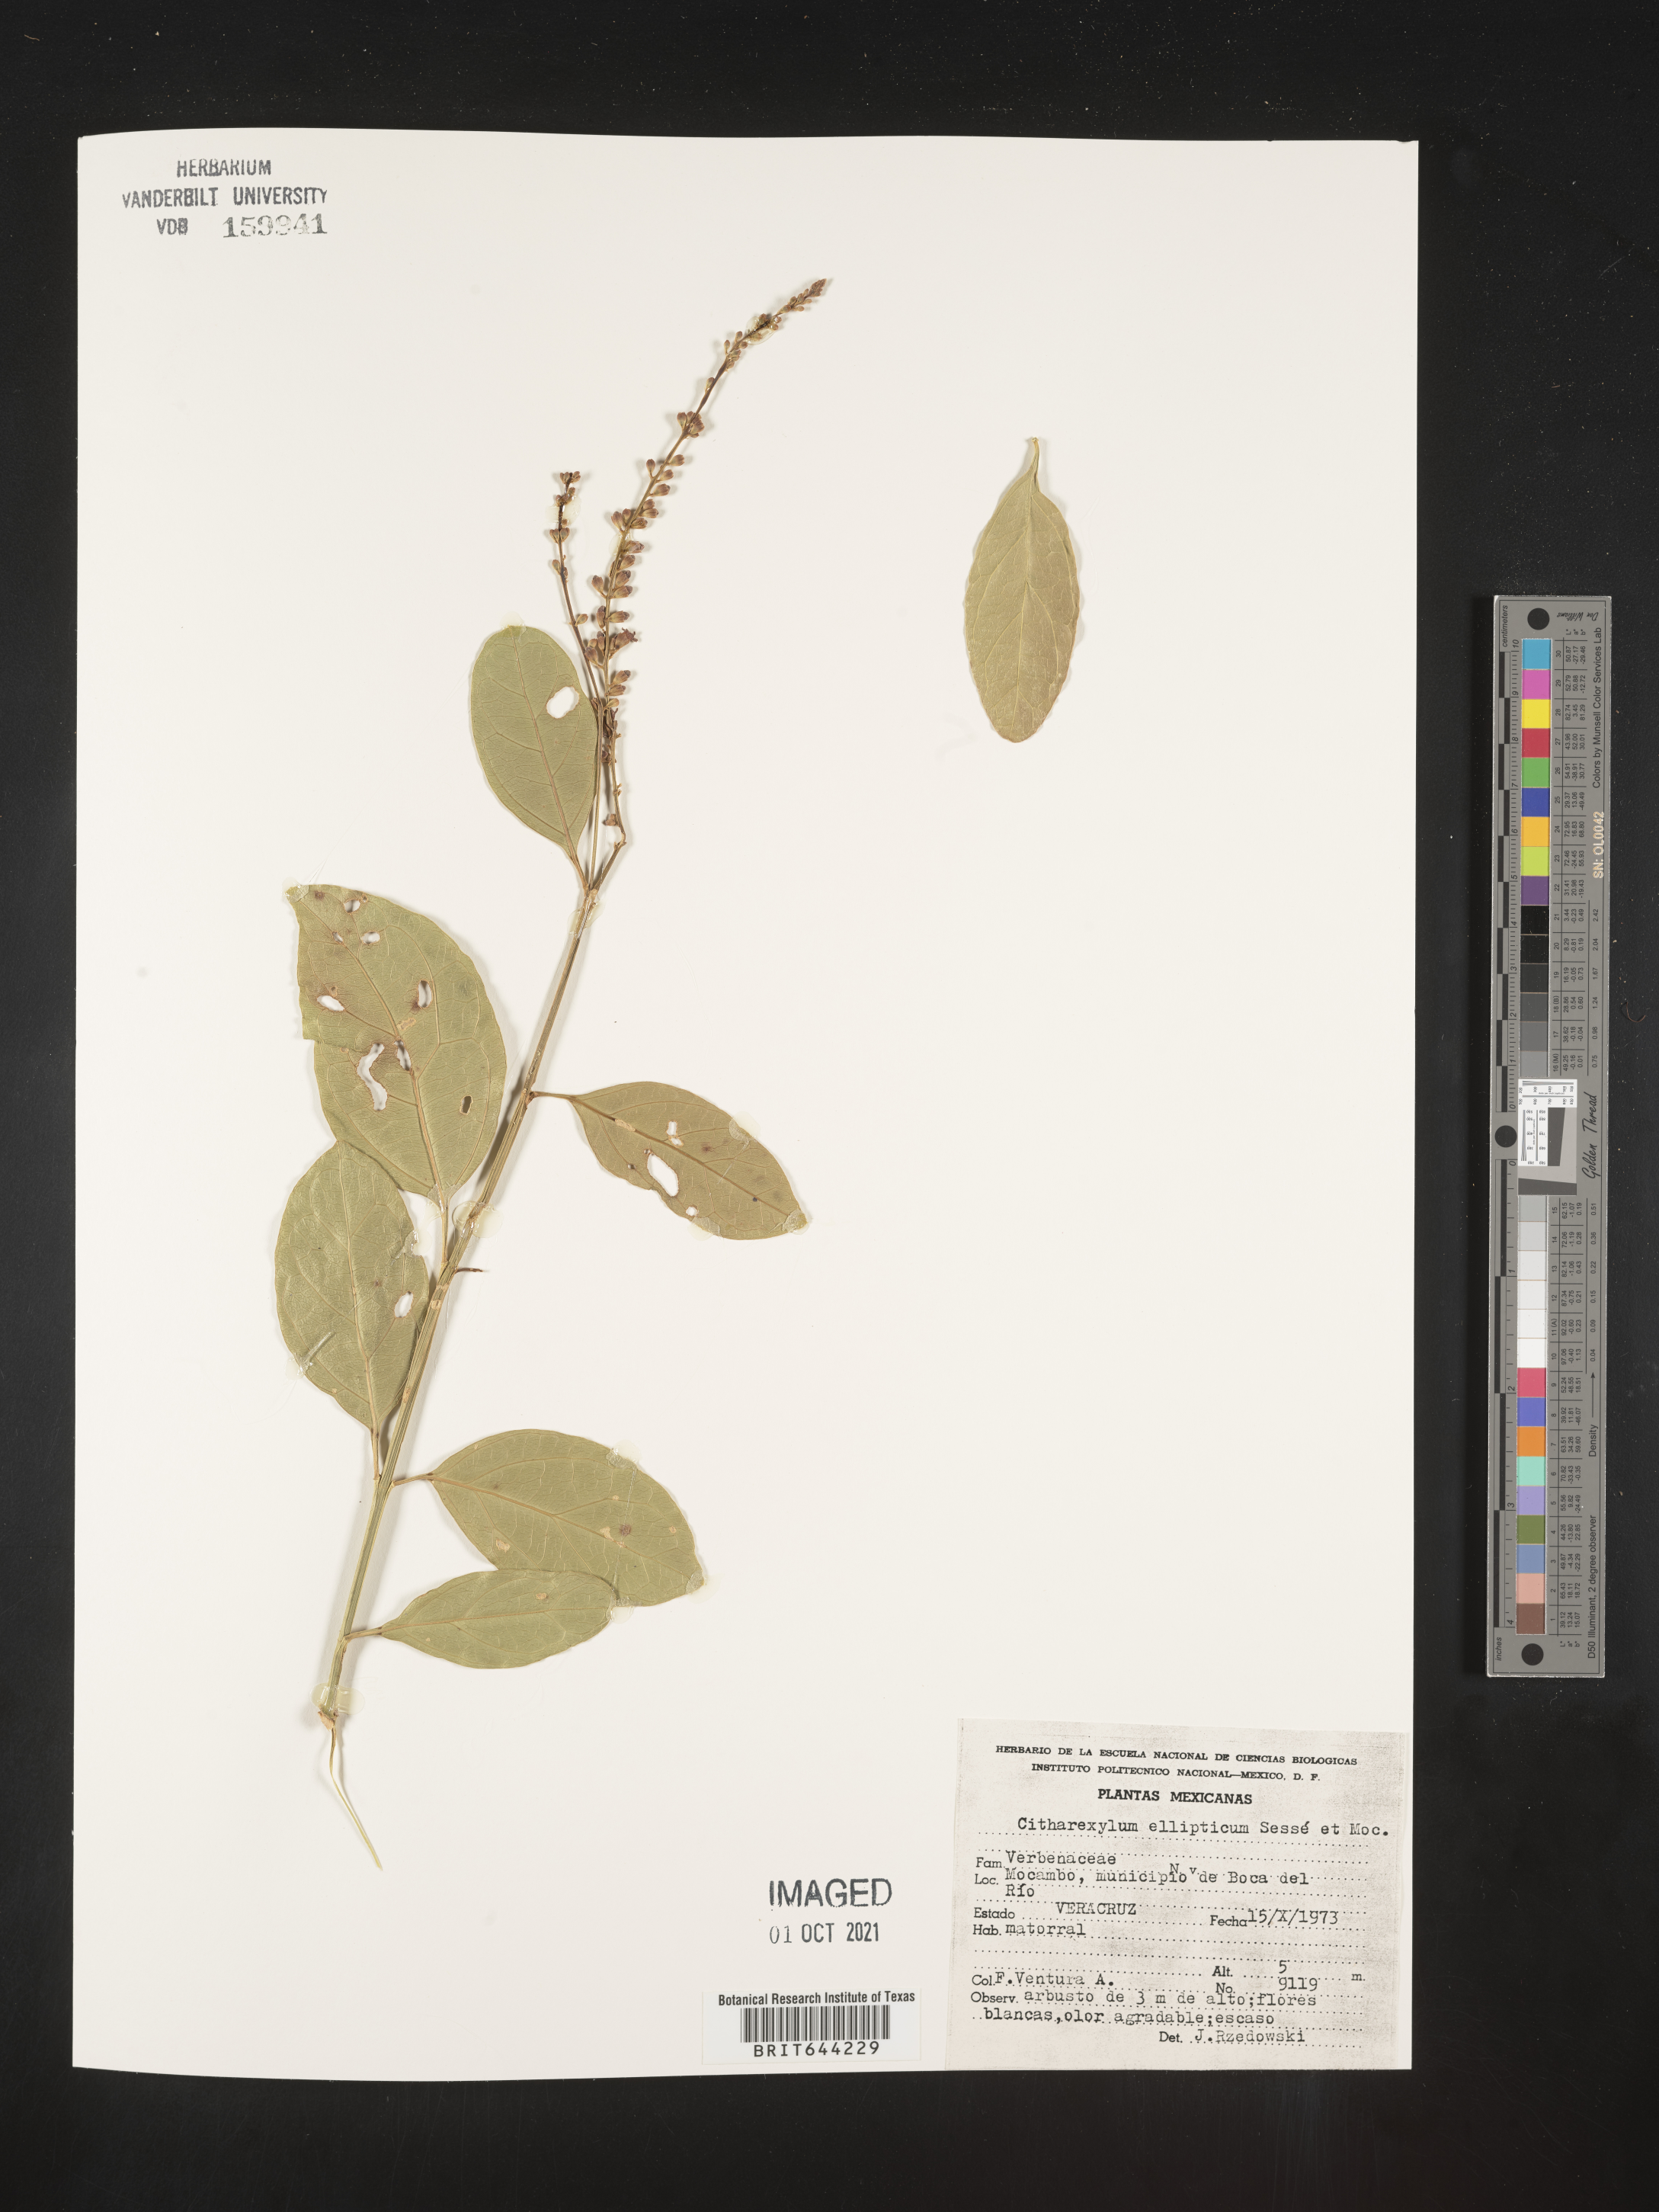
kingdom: Plantae
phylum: Tracheophyta
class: Magnoliopsida
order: Lamiales
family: Verbenaceae
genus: Citharexylum
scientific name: Citharexylum
